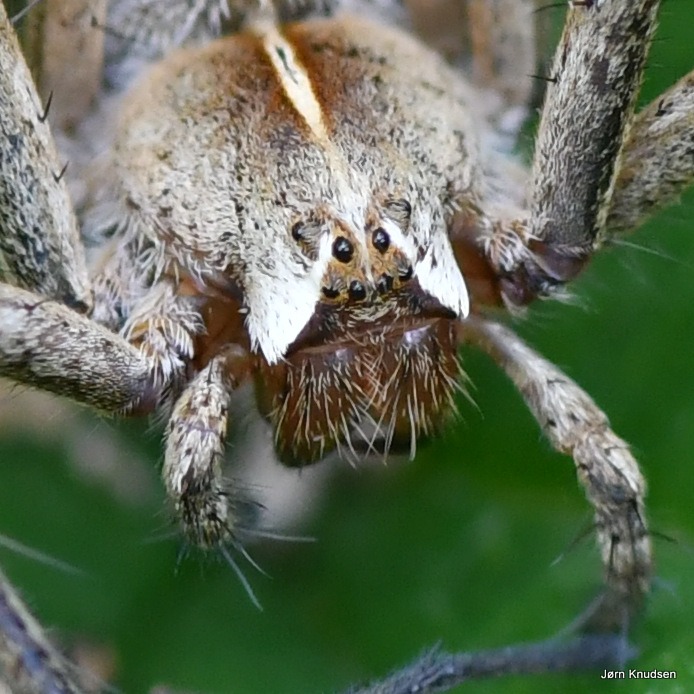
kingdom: Animalia
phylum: Arthropoda
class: Arachnida
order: Araneae
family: Pisauridae
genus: Pisaura
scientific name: Pisaura mirabilis
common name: Almindelig rovedderkop
